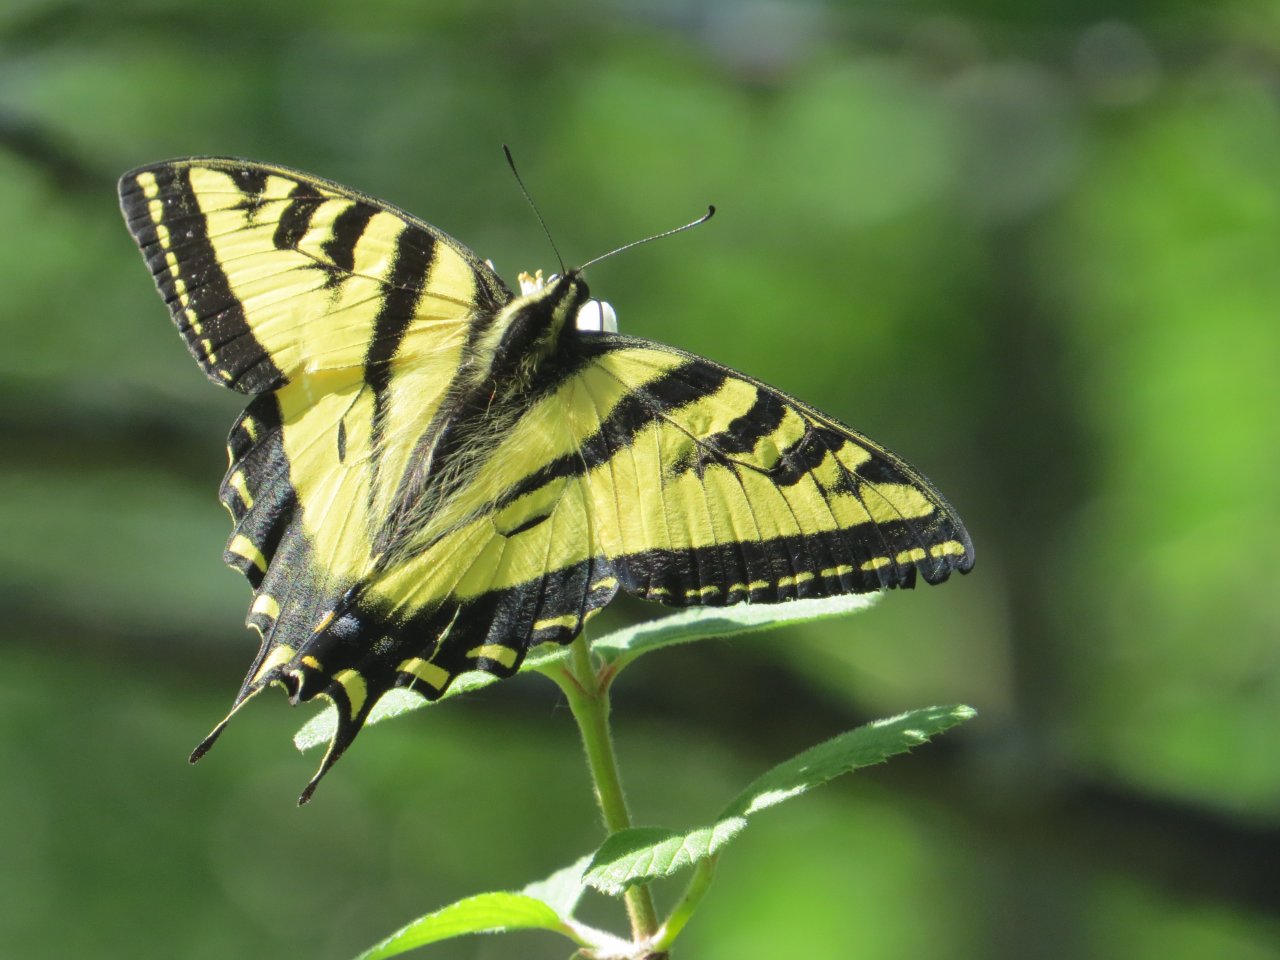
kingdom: Animalia
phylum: Arthropoda
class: Insecta
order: Lepidoptera
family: Papilionidae
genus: Pterourus
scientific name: Pterourus rutulus
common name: Western Tiger Swallowtail
